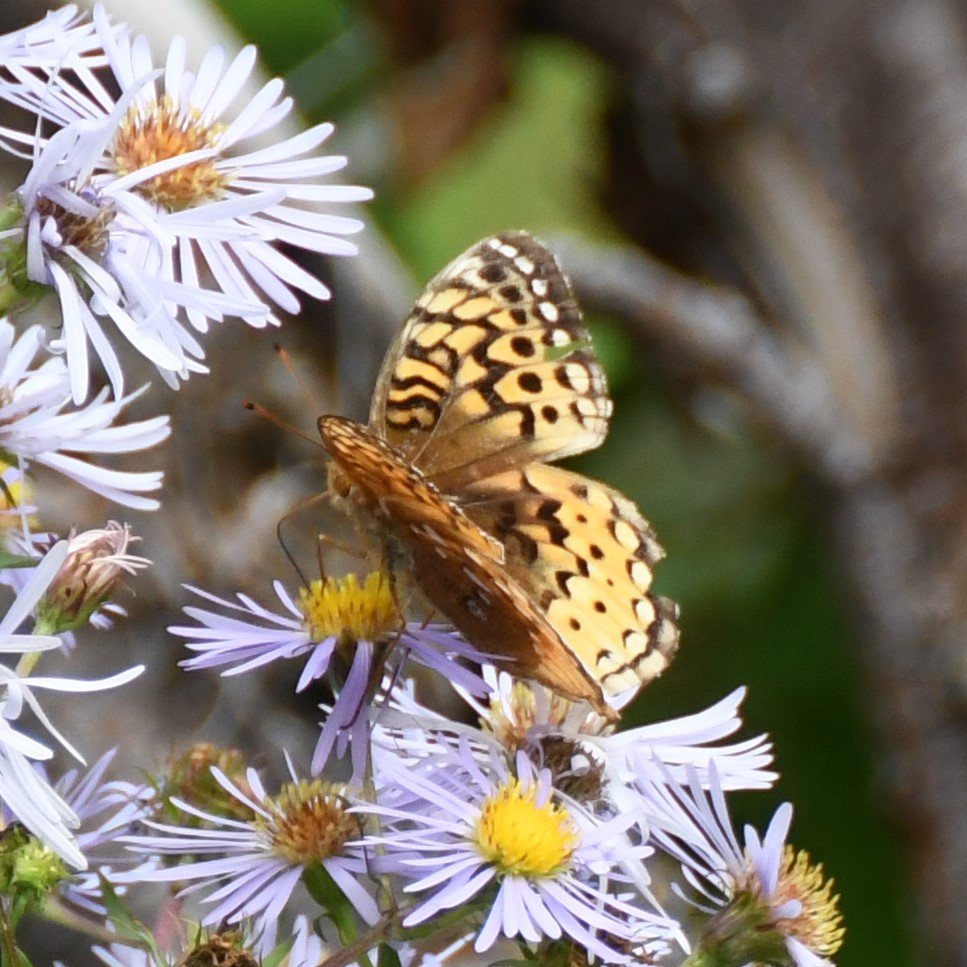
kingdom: Animalia
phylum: Arthropoda
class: Insecta
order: Lepidoptera
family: Nymphalidae
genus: Speyeria
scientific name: Speyeria cybele
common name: Great Spangled Fritillary
